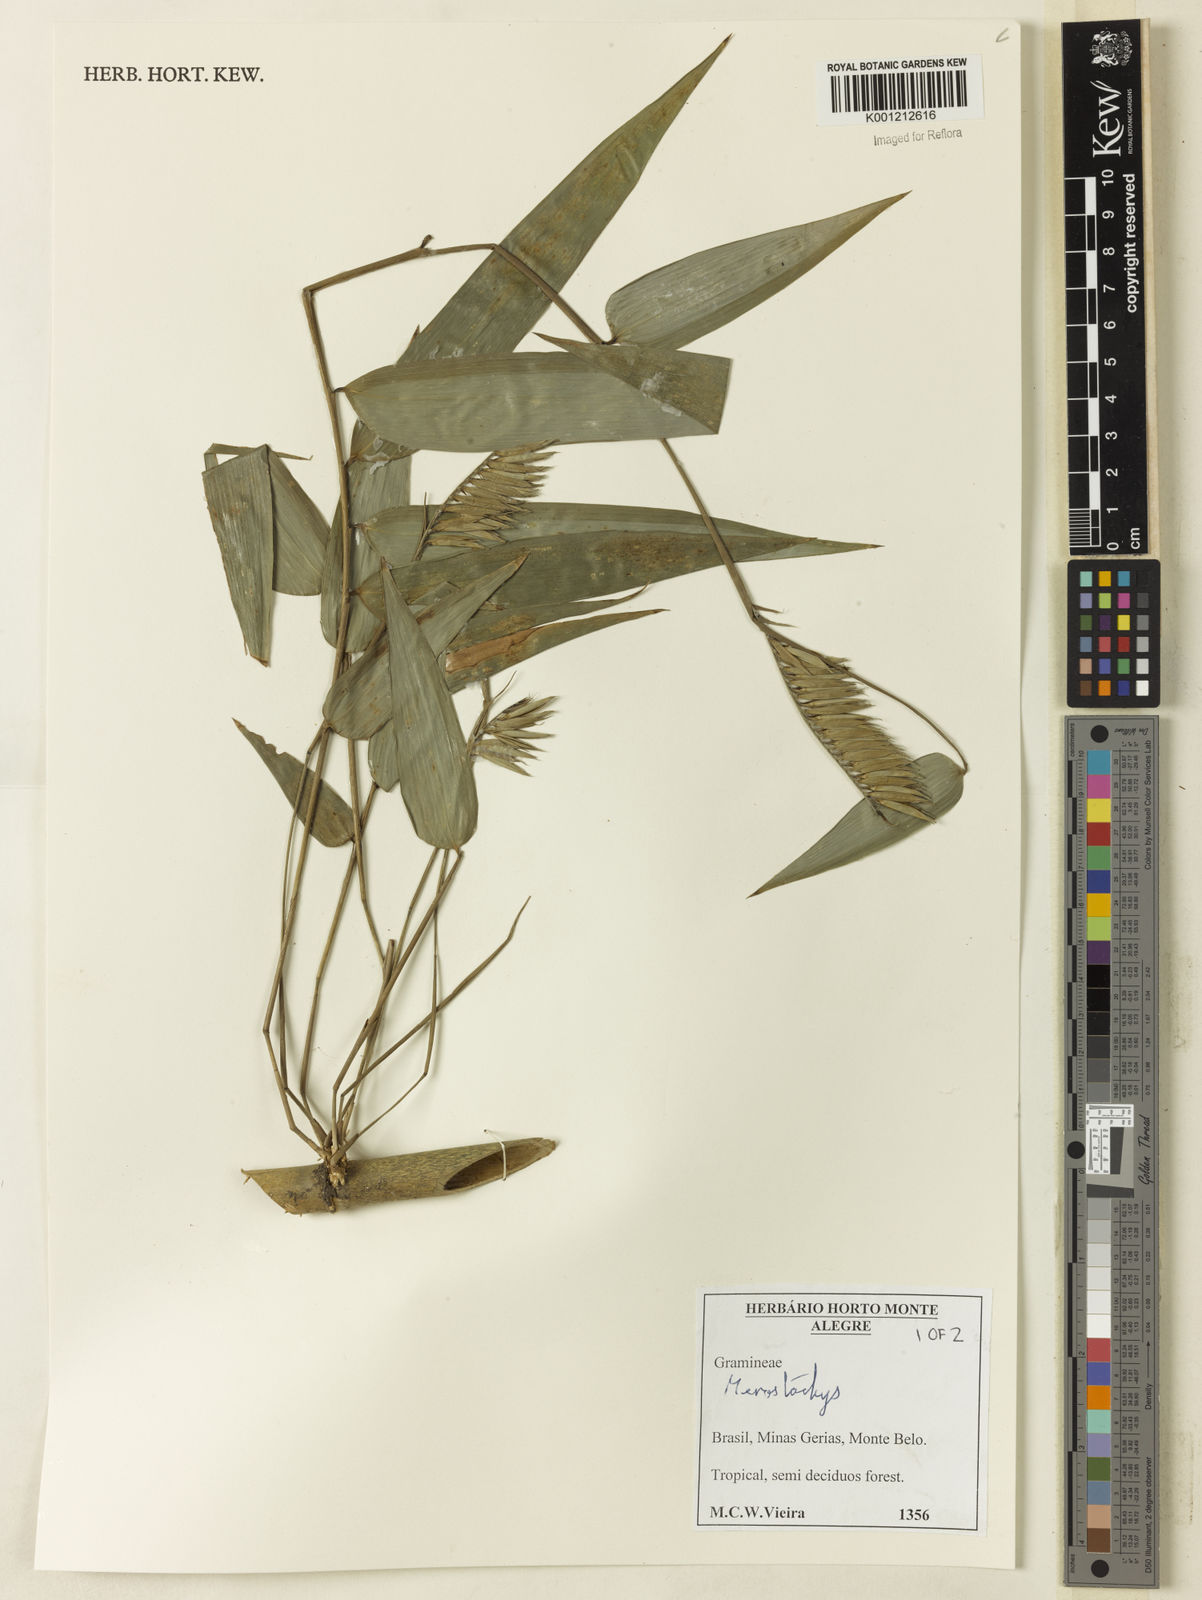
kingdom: Plantae
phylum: Tracheophyta
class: Liliopsida
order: Poales
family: Poaceae
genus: Merostachys
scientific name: Merostachys
